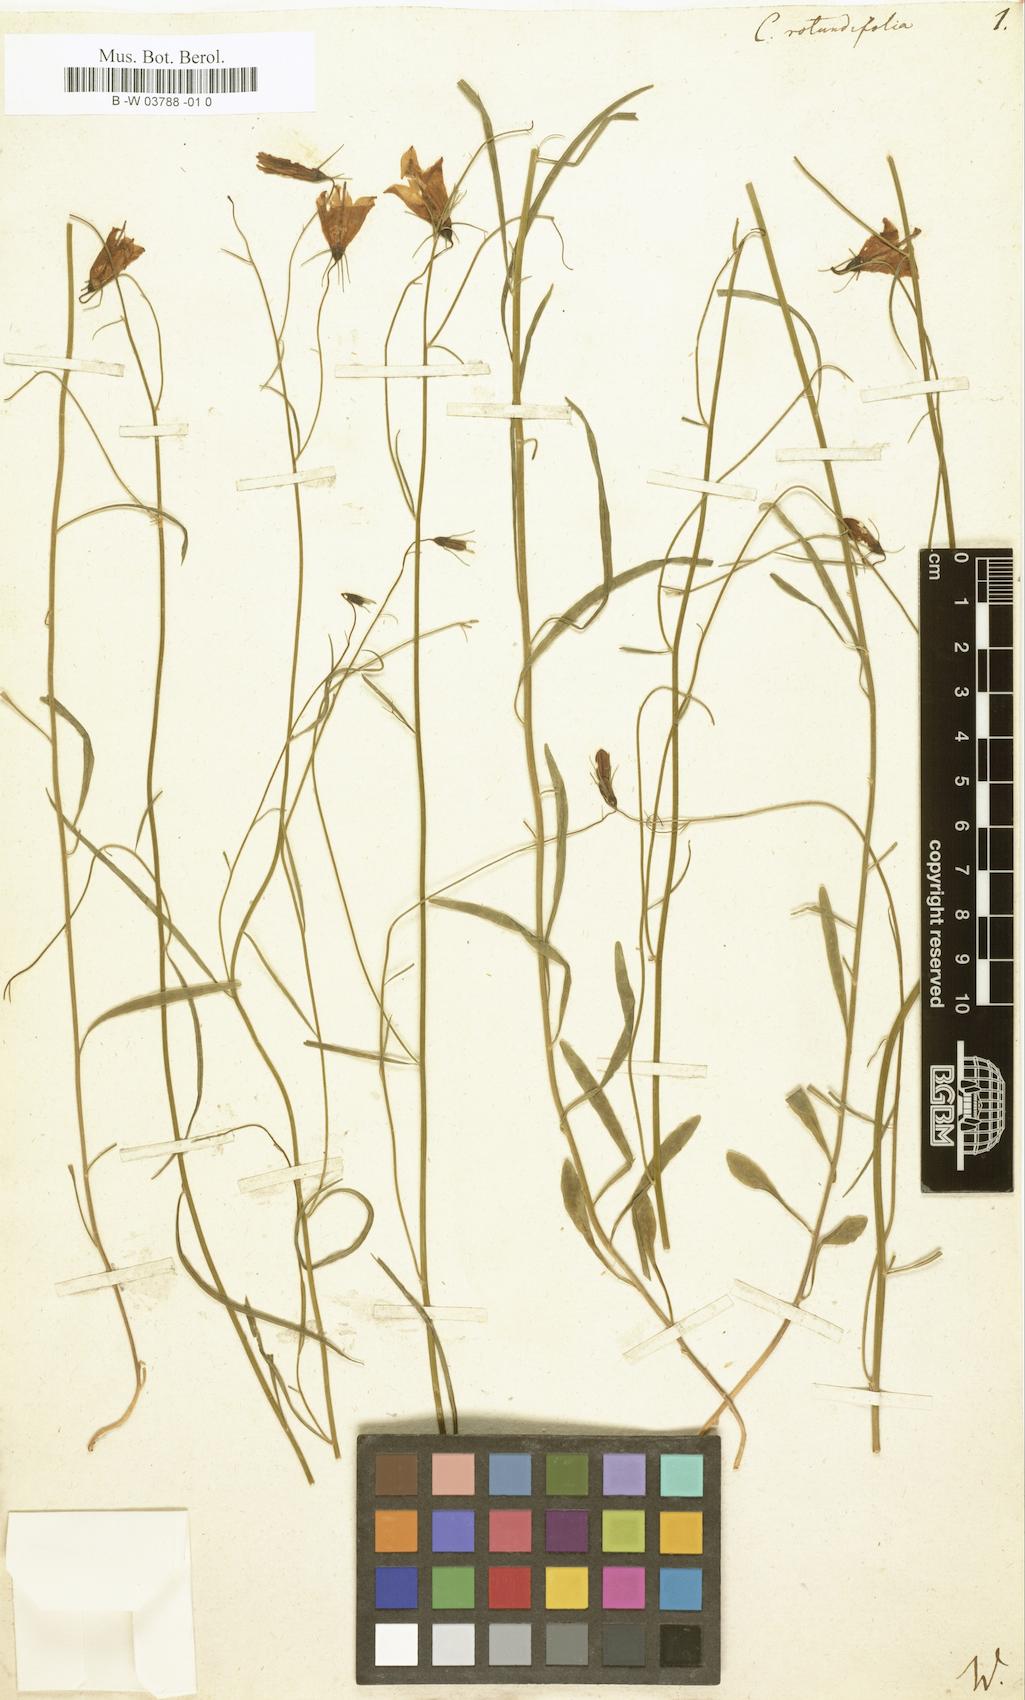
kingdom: Plantae
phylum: Tracheophyta
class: Magnoliopsida
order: Asterales
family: Campanulaceae
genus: Campanula
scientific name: Campanula rotundifolia
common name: Harebell
